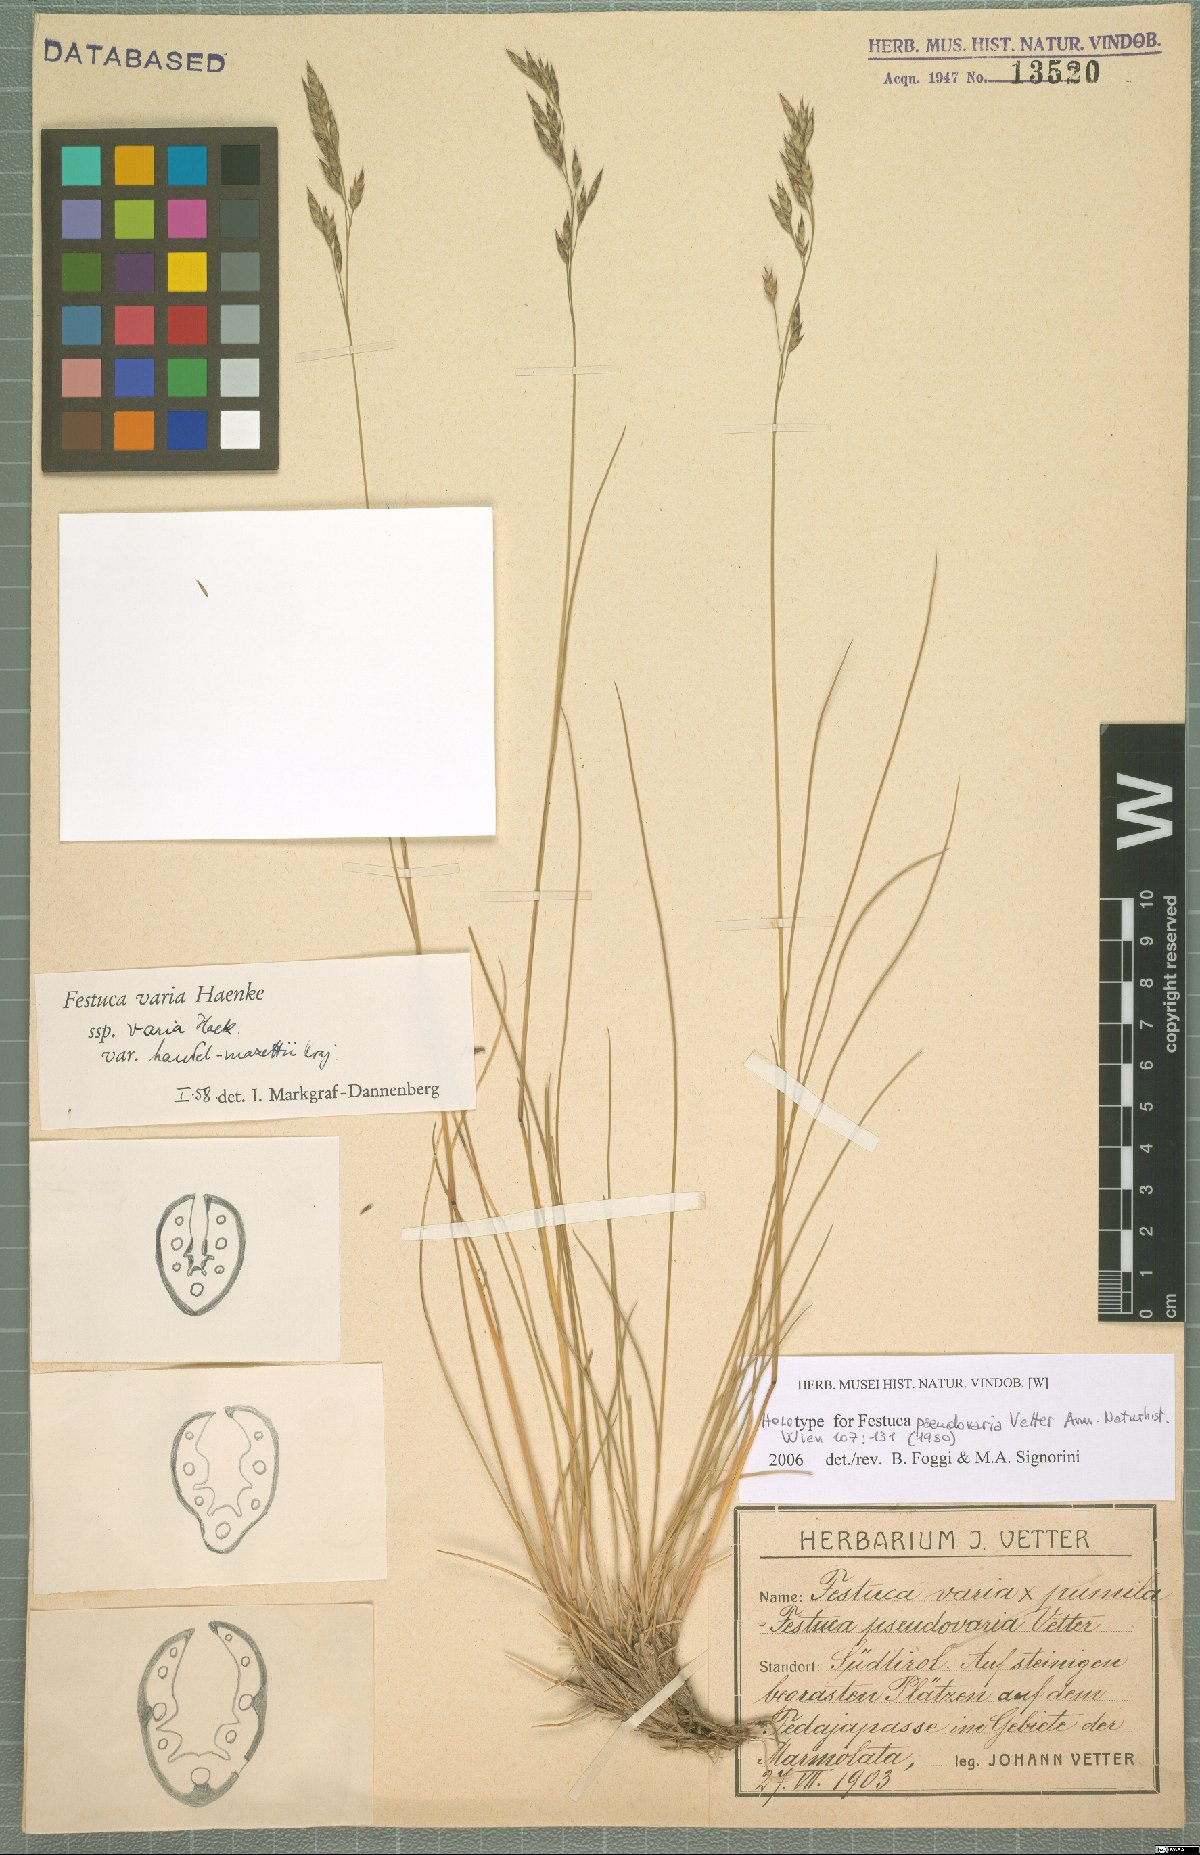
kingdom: Plantae
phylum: Tracheophyta
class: Liliopsida
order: Poales
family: Poaceae
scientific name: Poaceae
